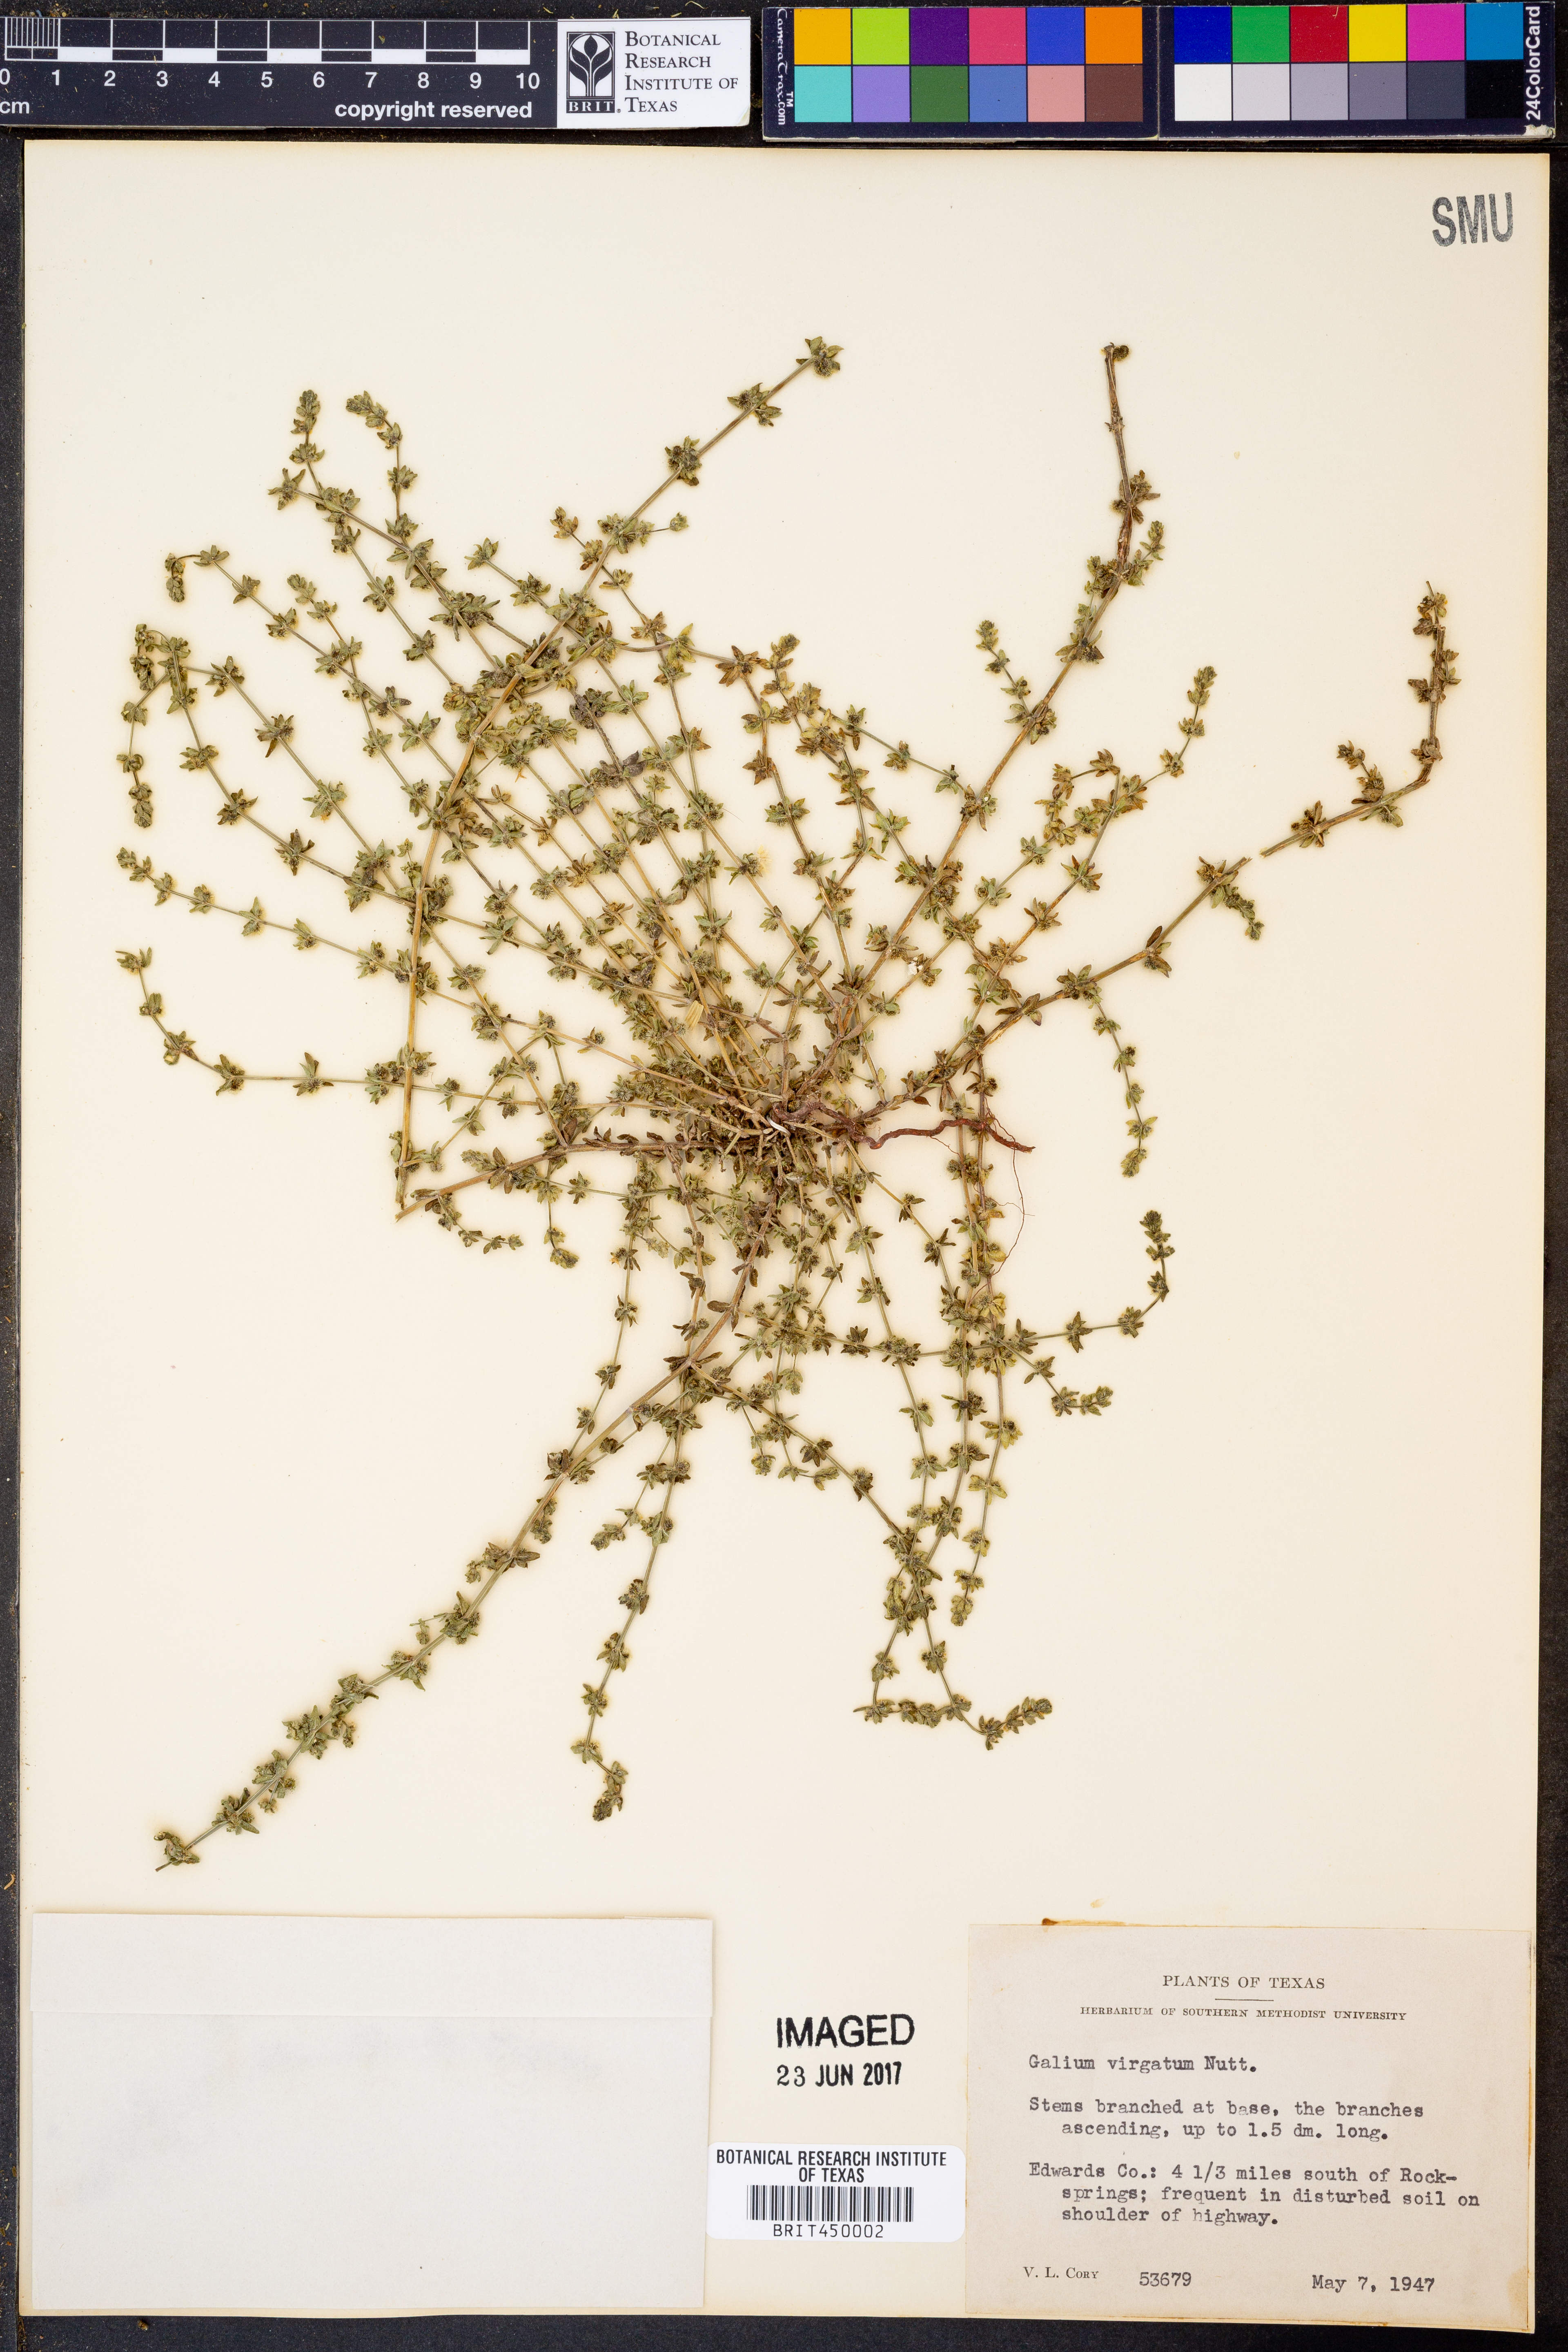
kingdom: Plantae
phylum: Tracheophyta
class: Magnoliopsida
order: Gentianales
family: Rubiaceae
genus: Galium
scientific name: Galium virgatum
